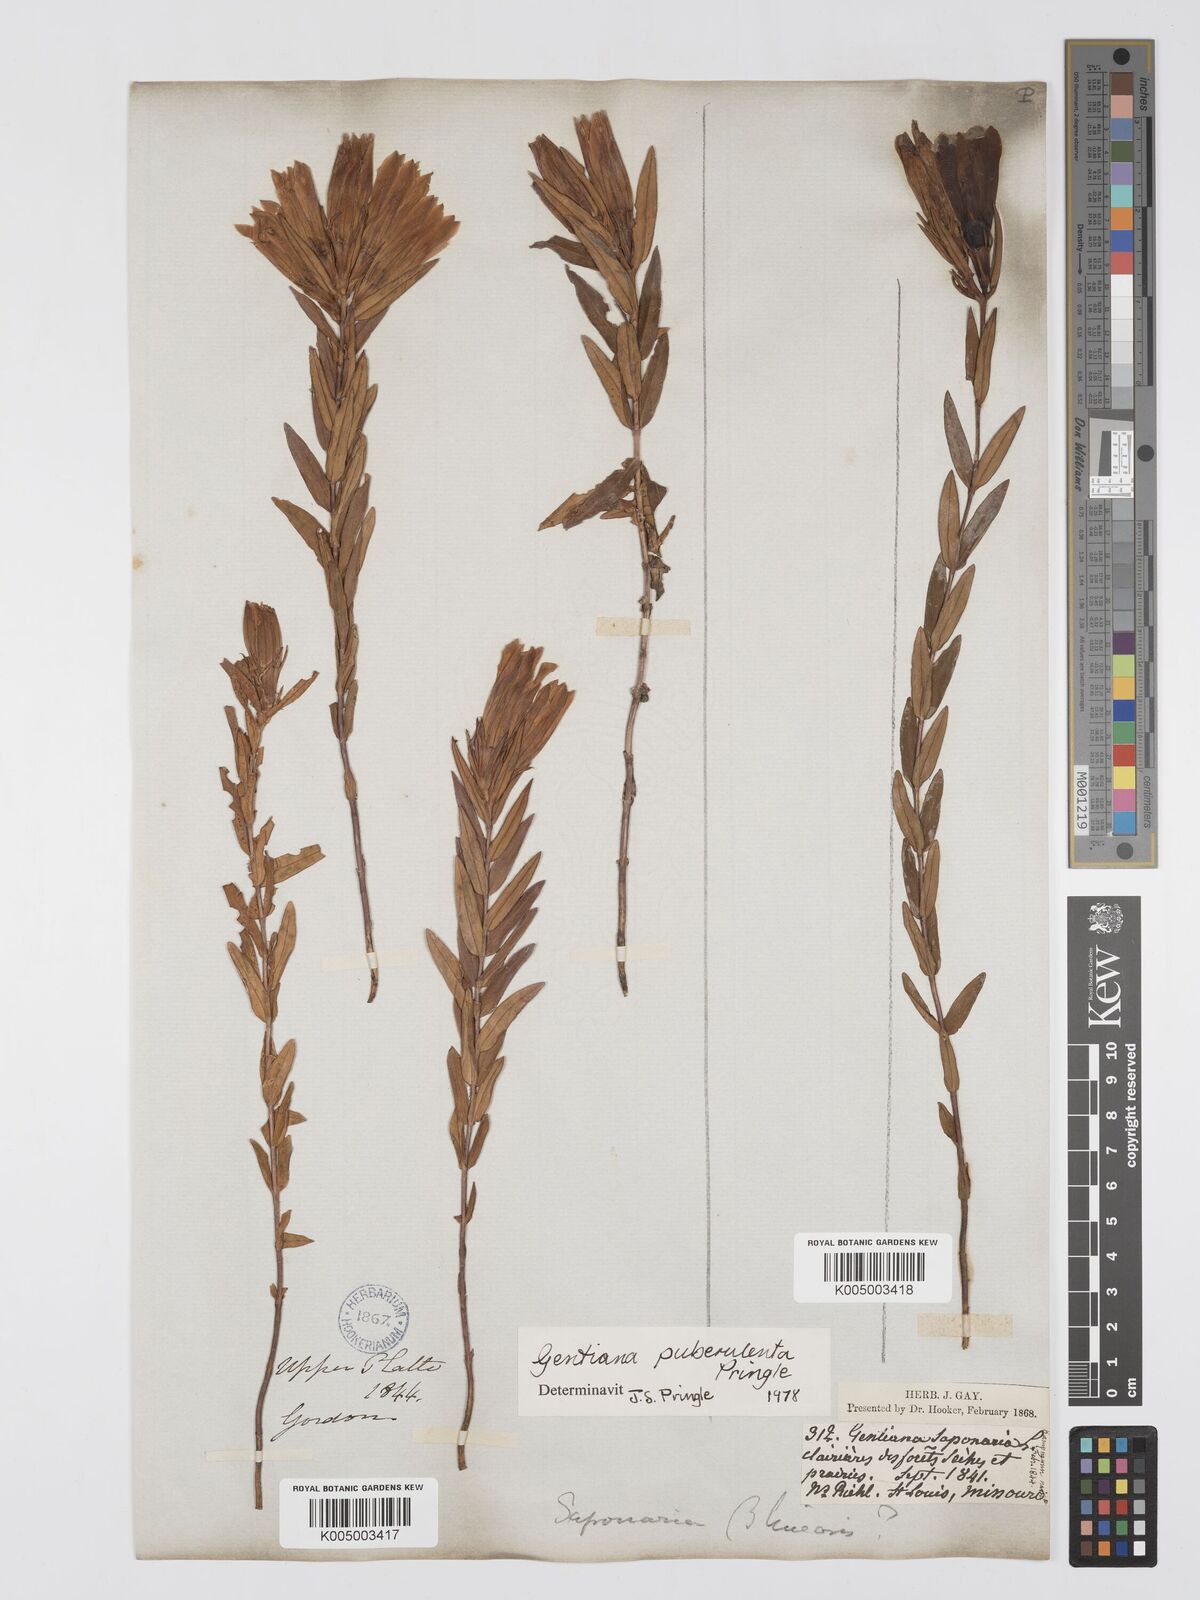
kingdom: Plantae
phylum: Tracheophyta
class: Magnoliopsida
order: Gentianales
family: Gentianaceae
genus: Gentiana
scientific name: Gentiana puberulenta
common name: Downy gentian
